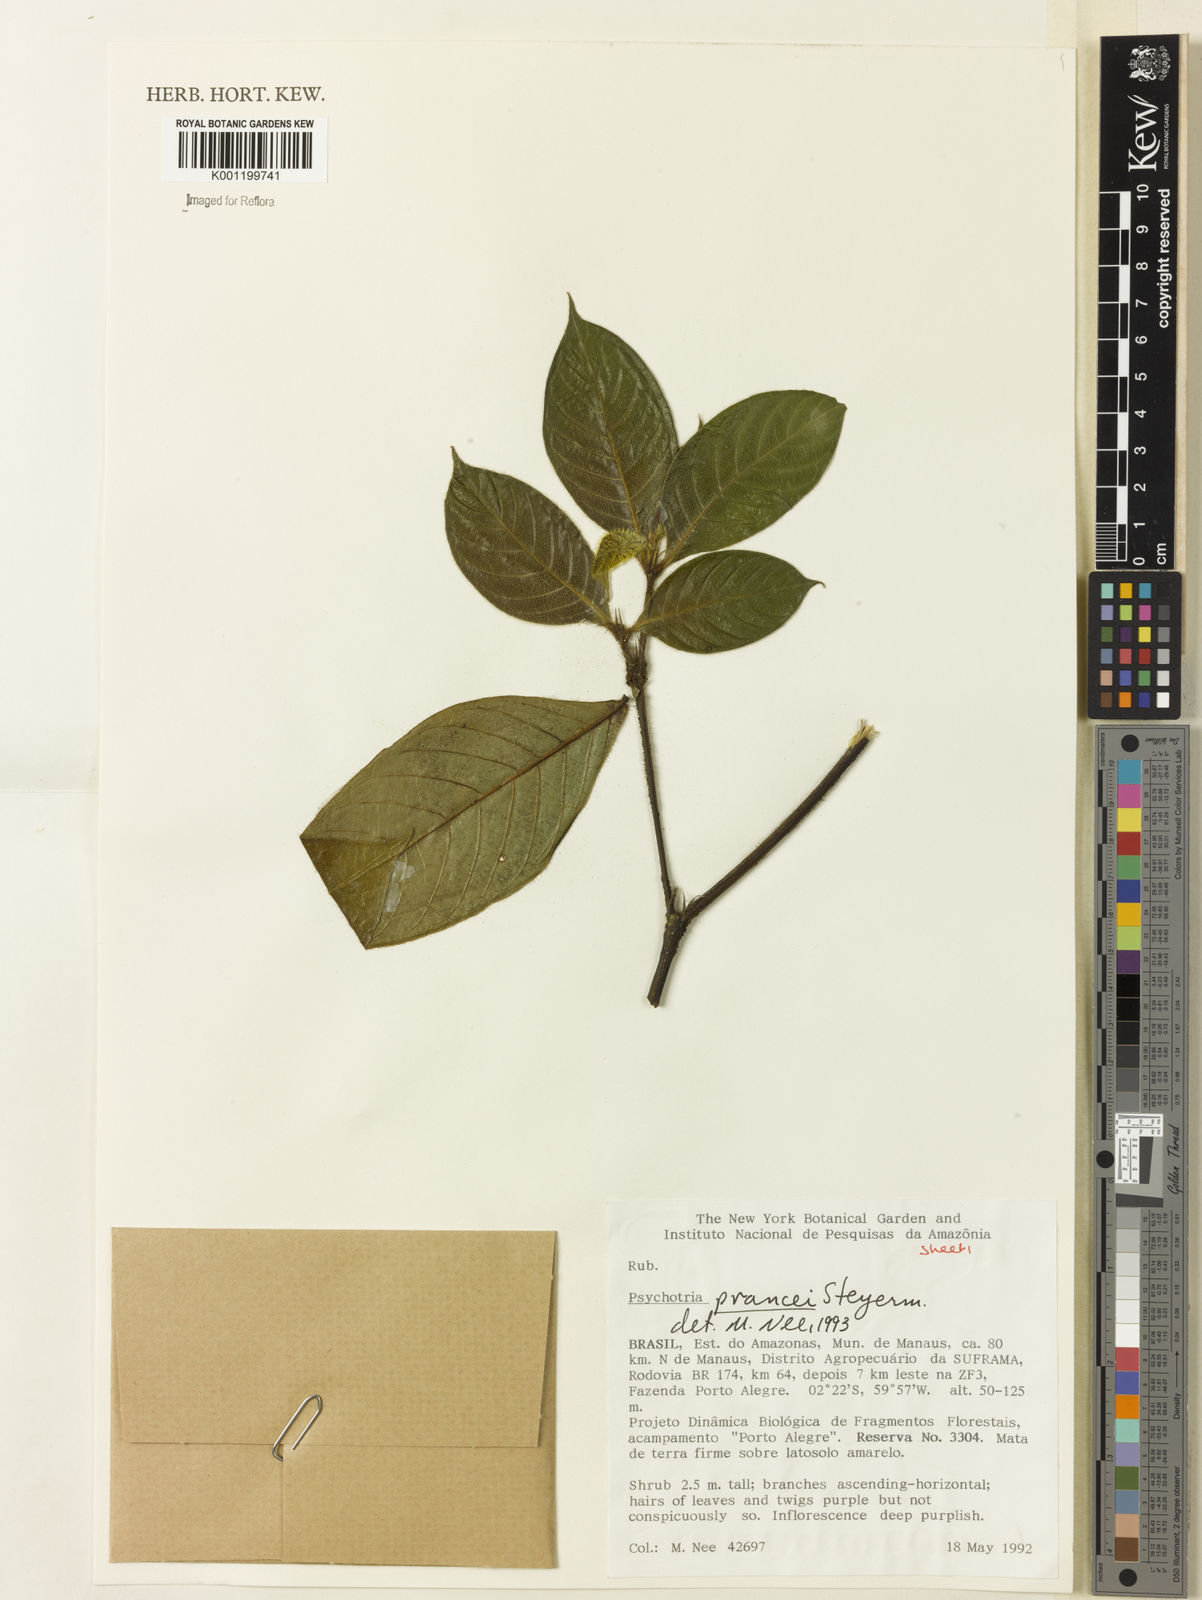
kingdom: Plantae
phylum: Tracheophyta
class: Magnoliopsida
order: Gentianales
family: Rubiaceae
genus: Palicourea
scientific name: Palicourea prancei
